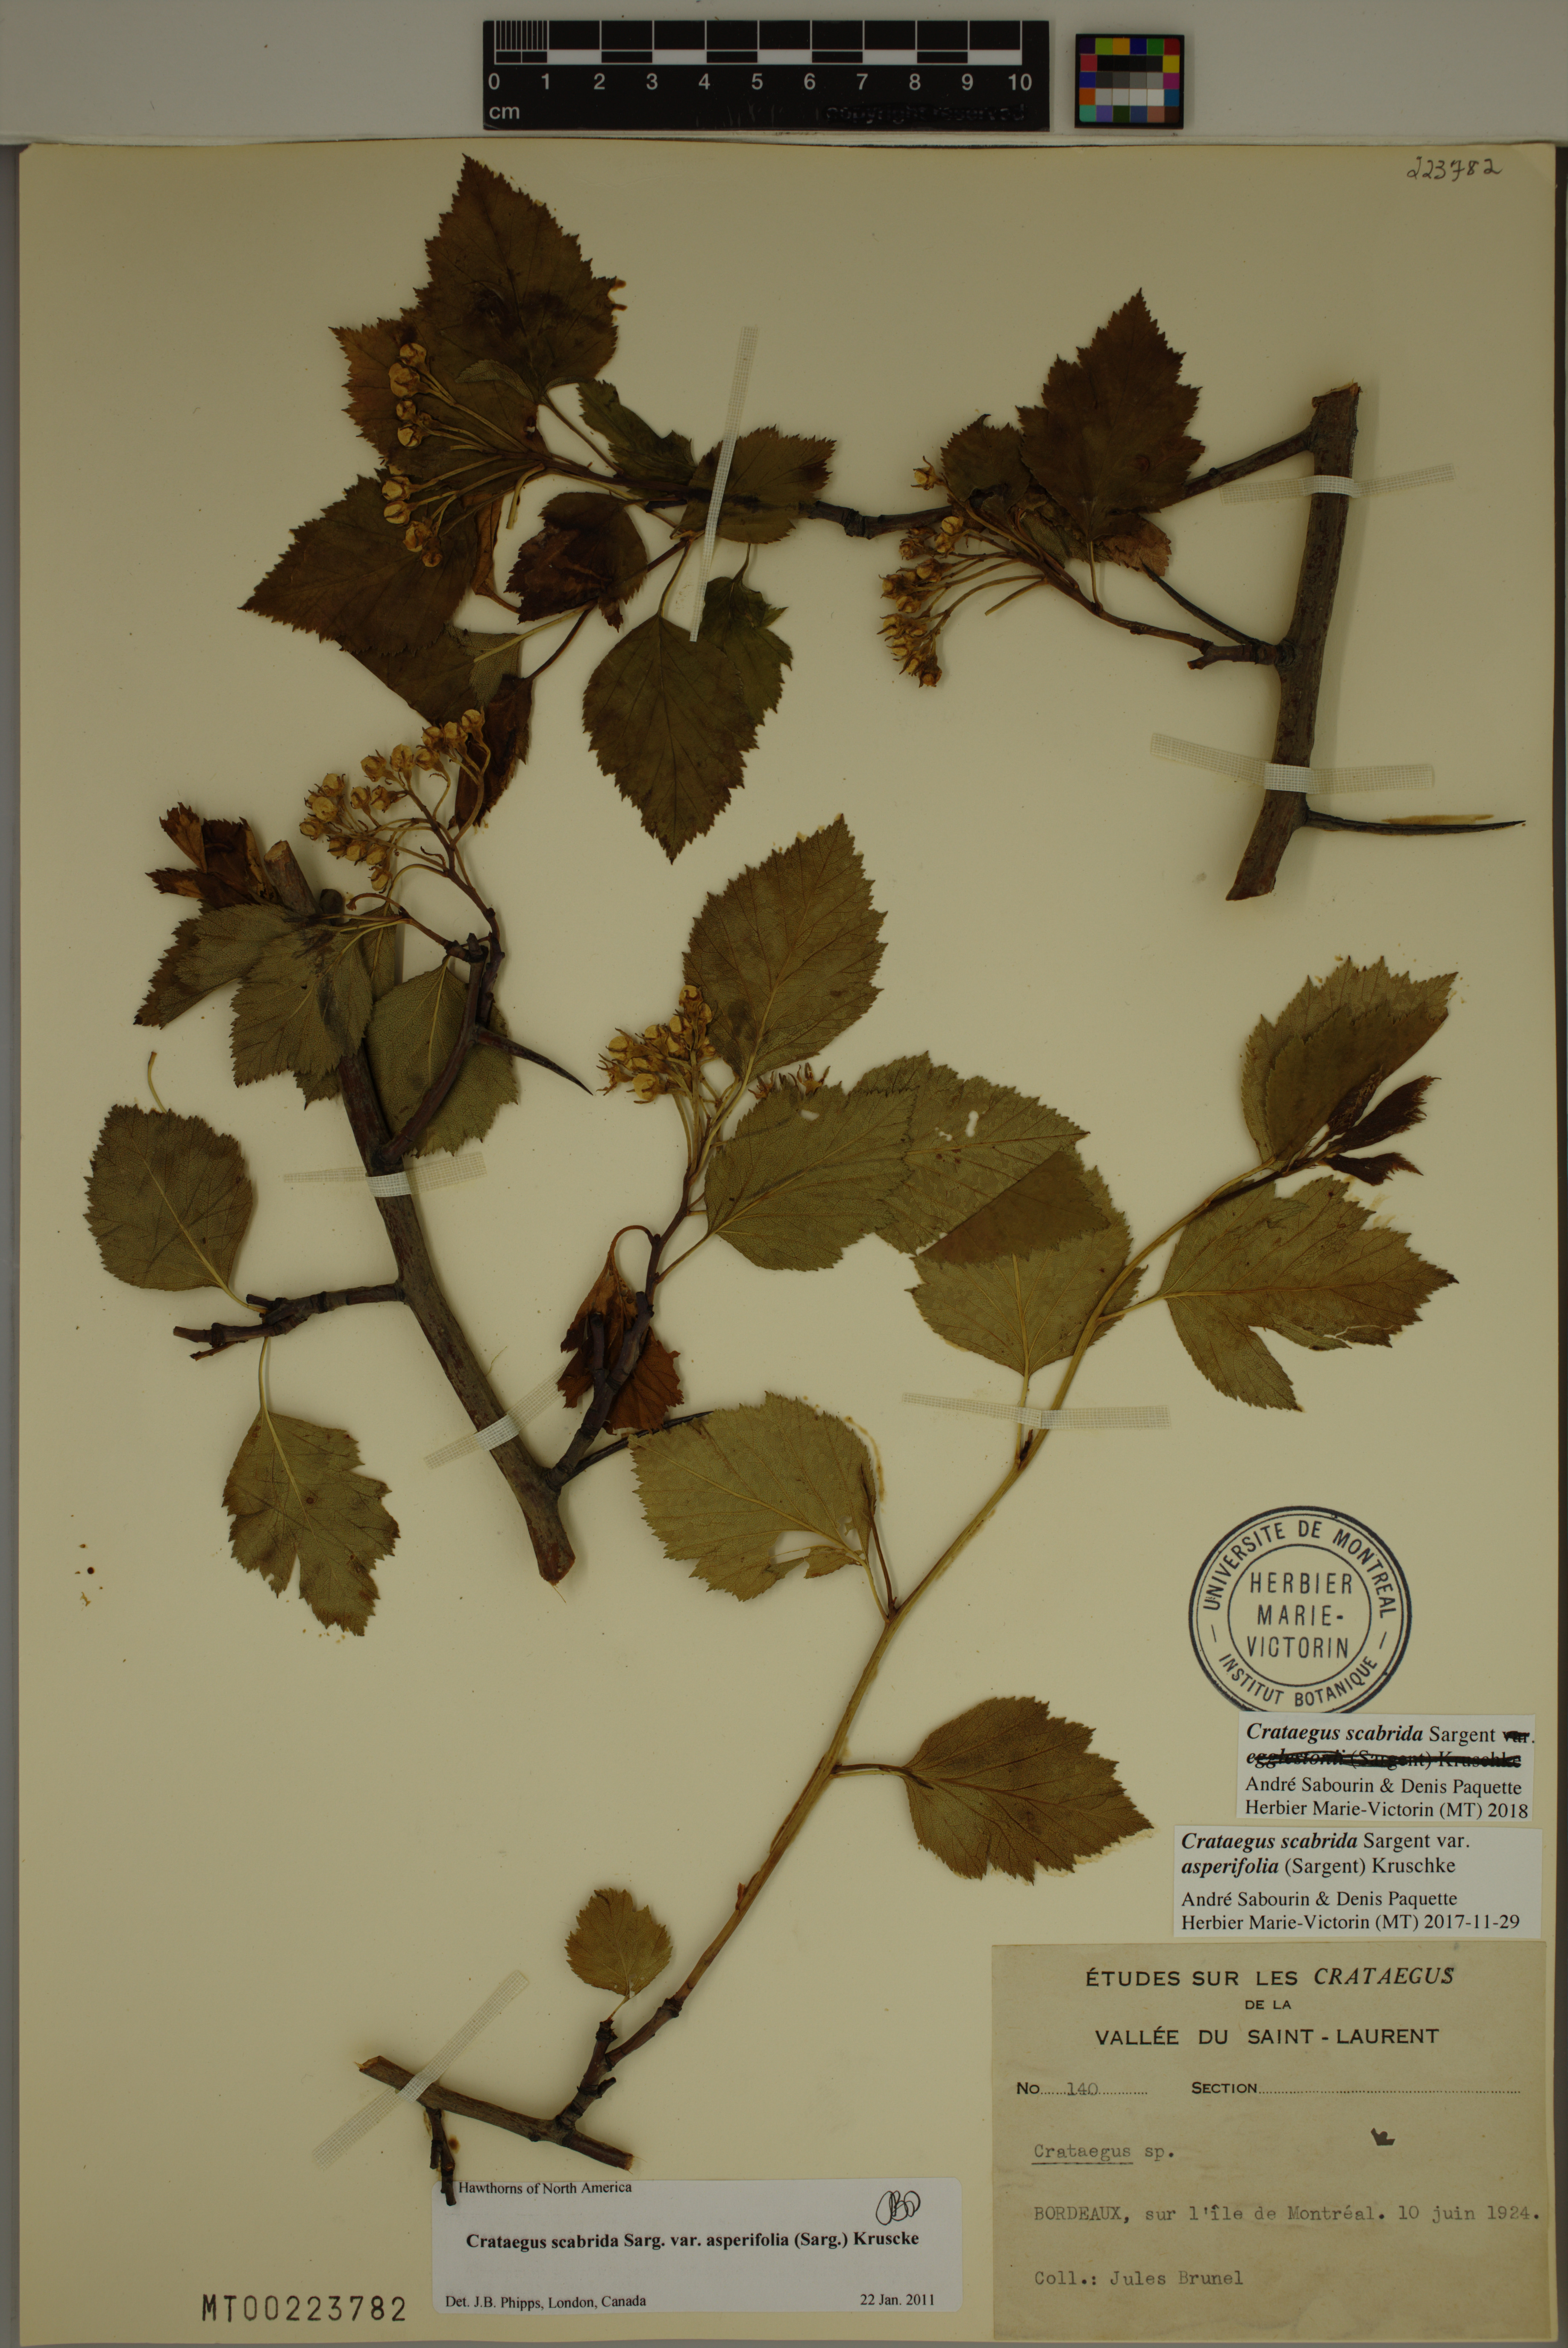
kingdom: Plantae
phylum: Tracheophyta
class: Magnoliopsida
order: Rosales
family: Rosaceae
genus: Crataegus
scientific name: Crataegus scabrida
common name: Rough hawthorn
